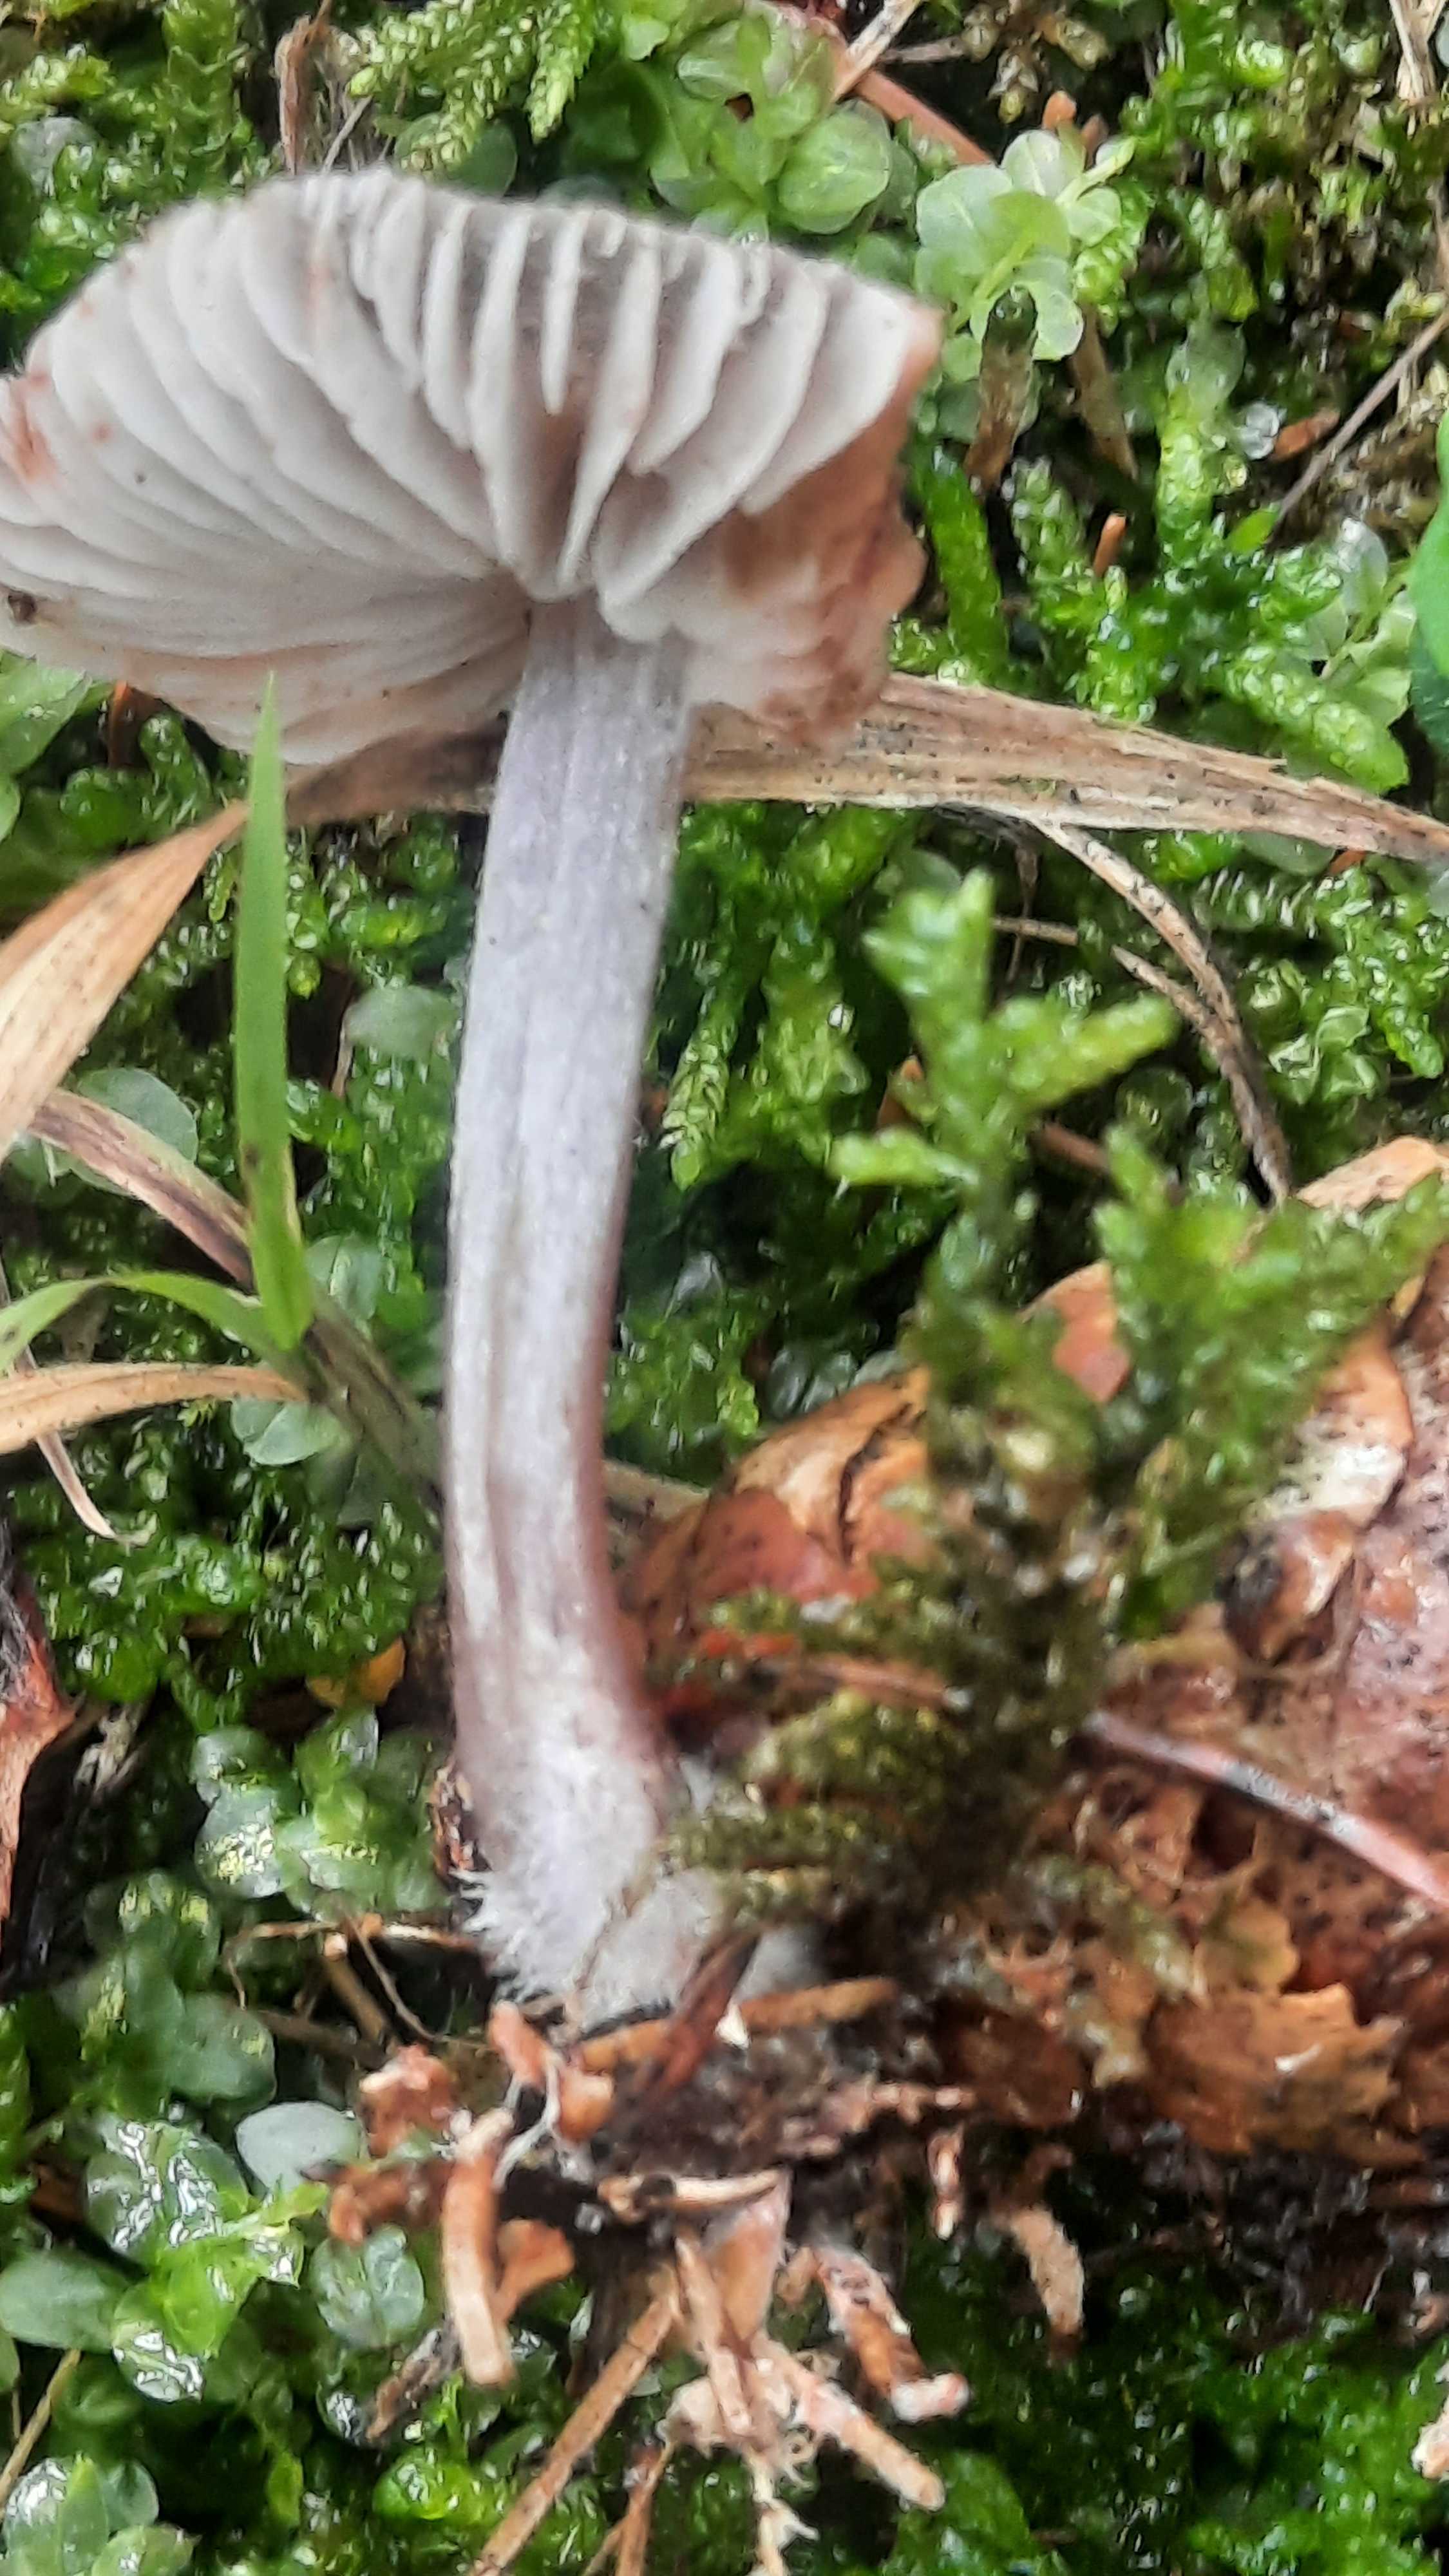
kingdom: Fungi
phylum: Basidiomycota
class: Agaricomycetes
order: Agaricales
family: Mycenaceae
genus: Mycena
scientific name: Mycena zephirus
